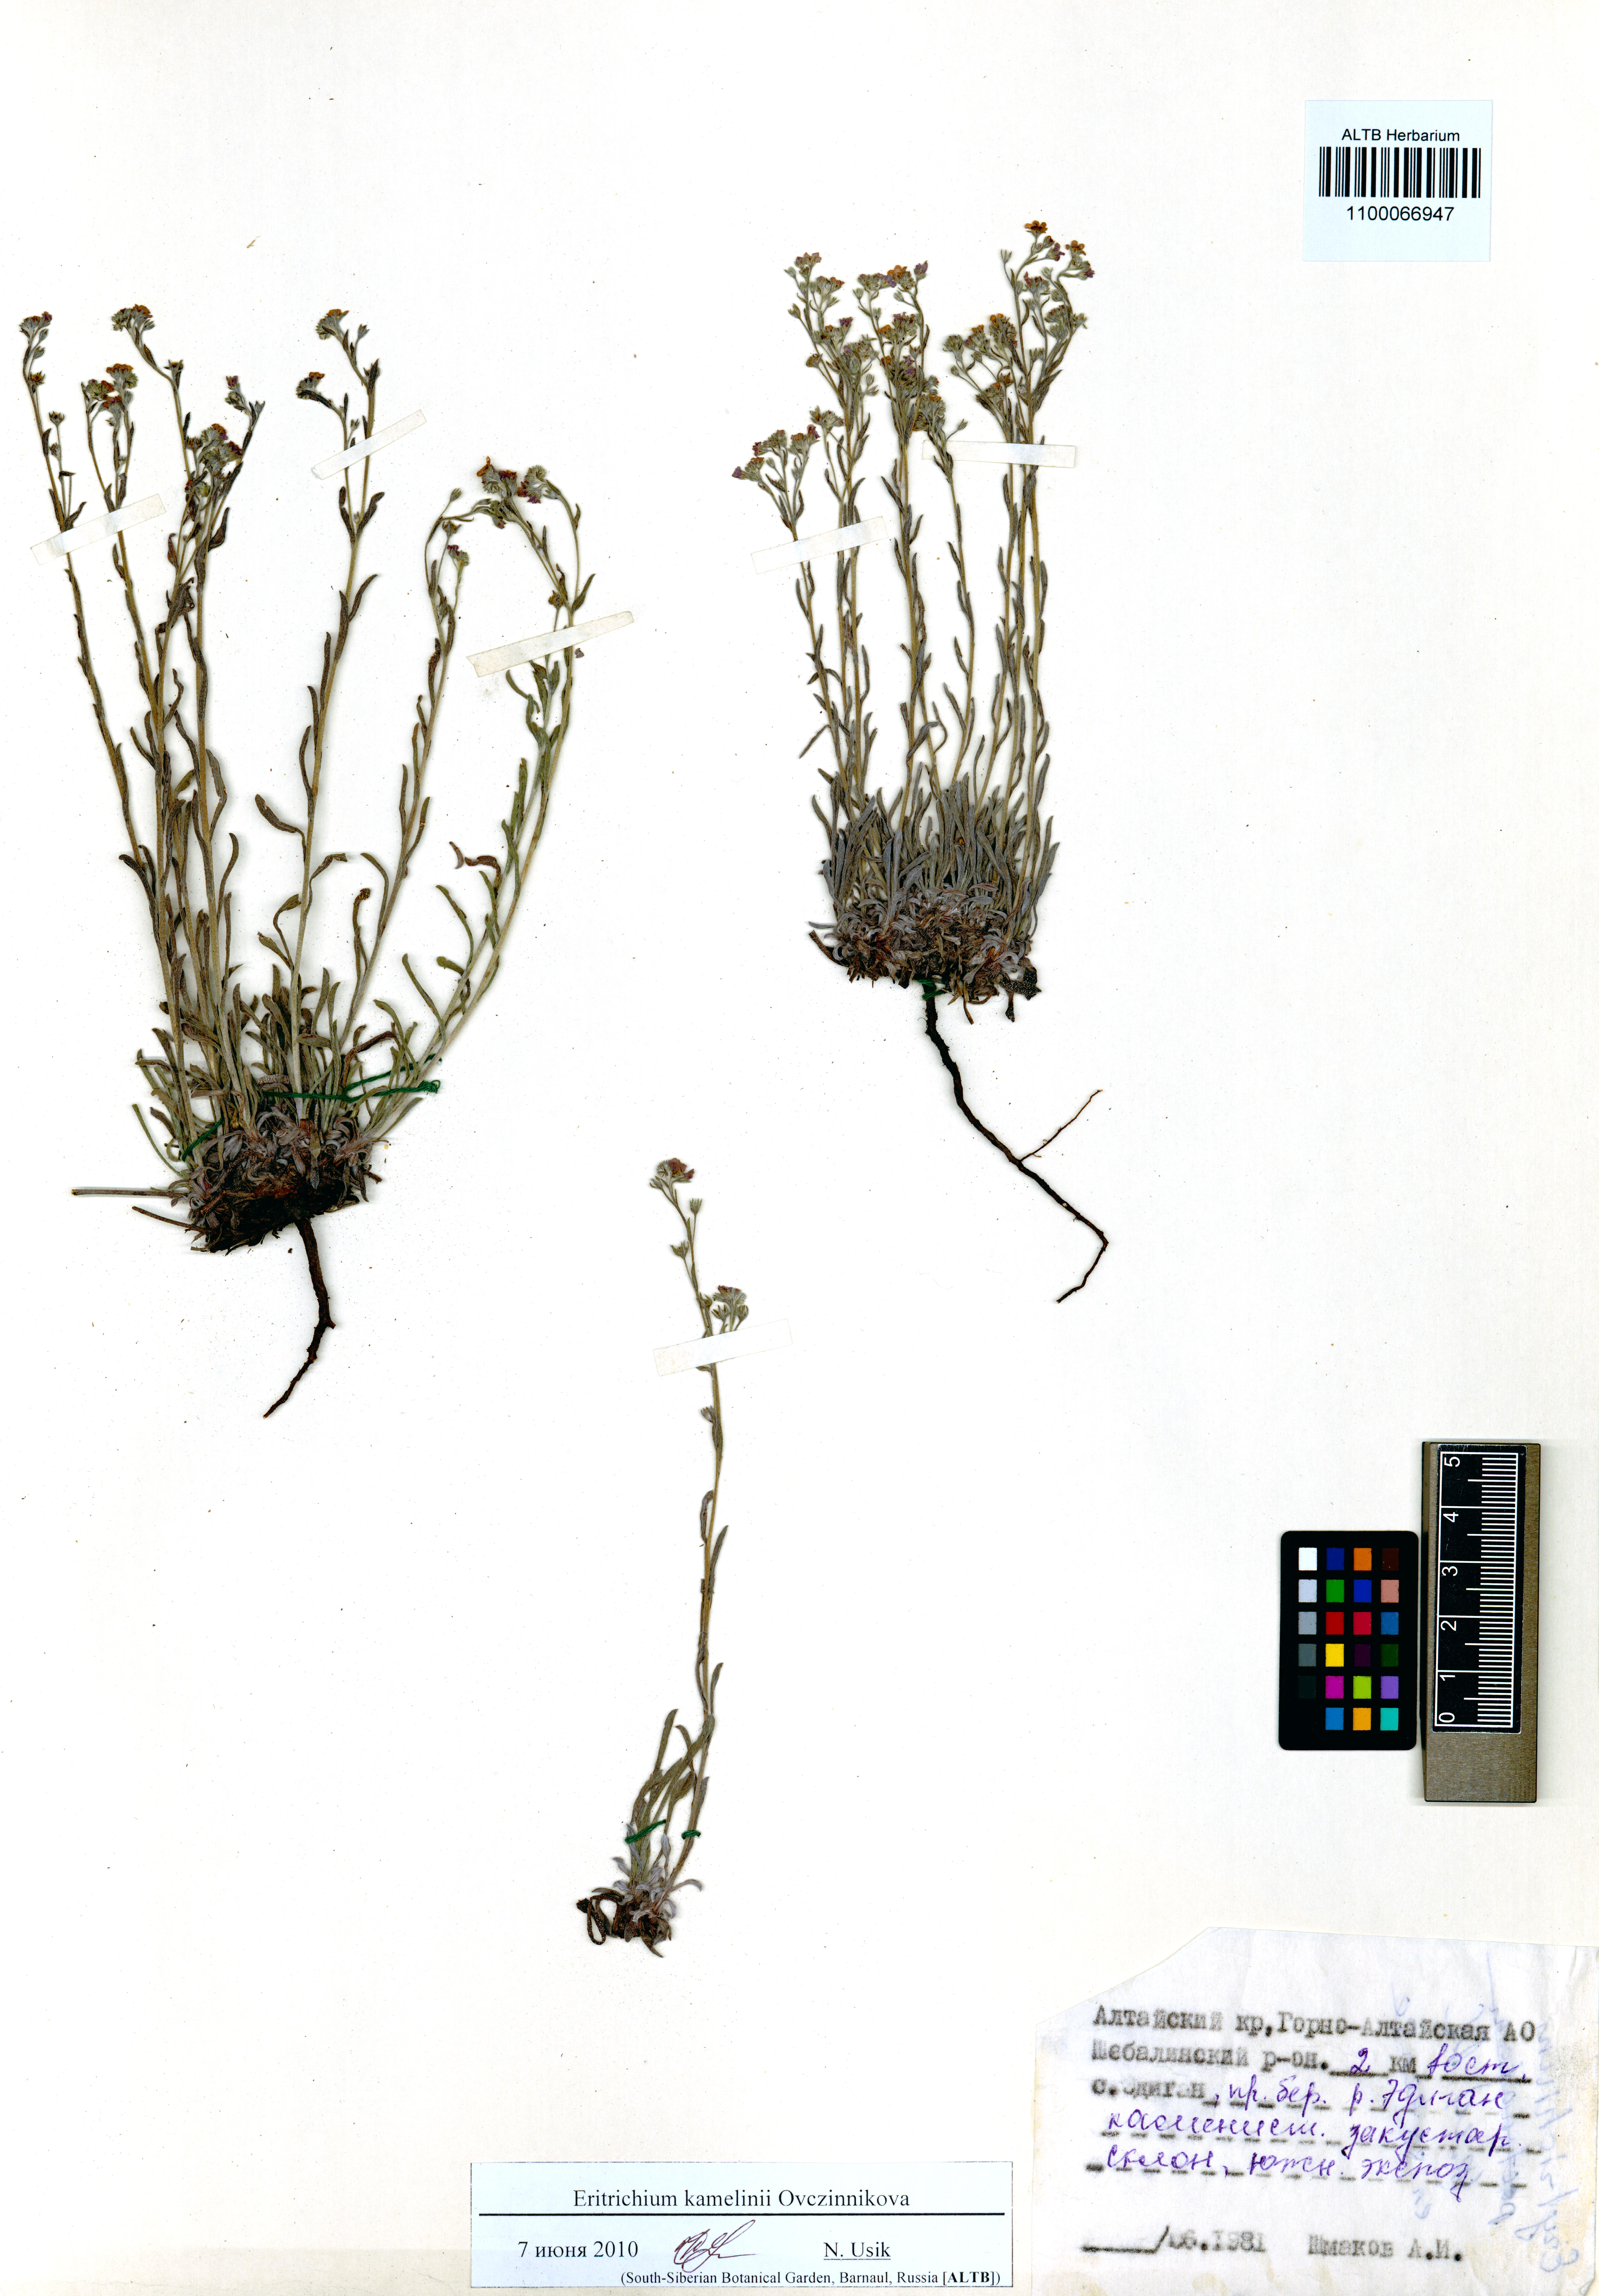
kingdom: Plantae
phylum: Tracheophyta
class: Magnoliopsida
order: Boraginales
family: Boraginaceae
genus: Eritrichium
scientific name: Eritrichium kamelinii
